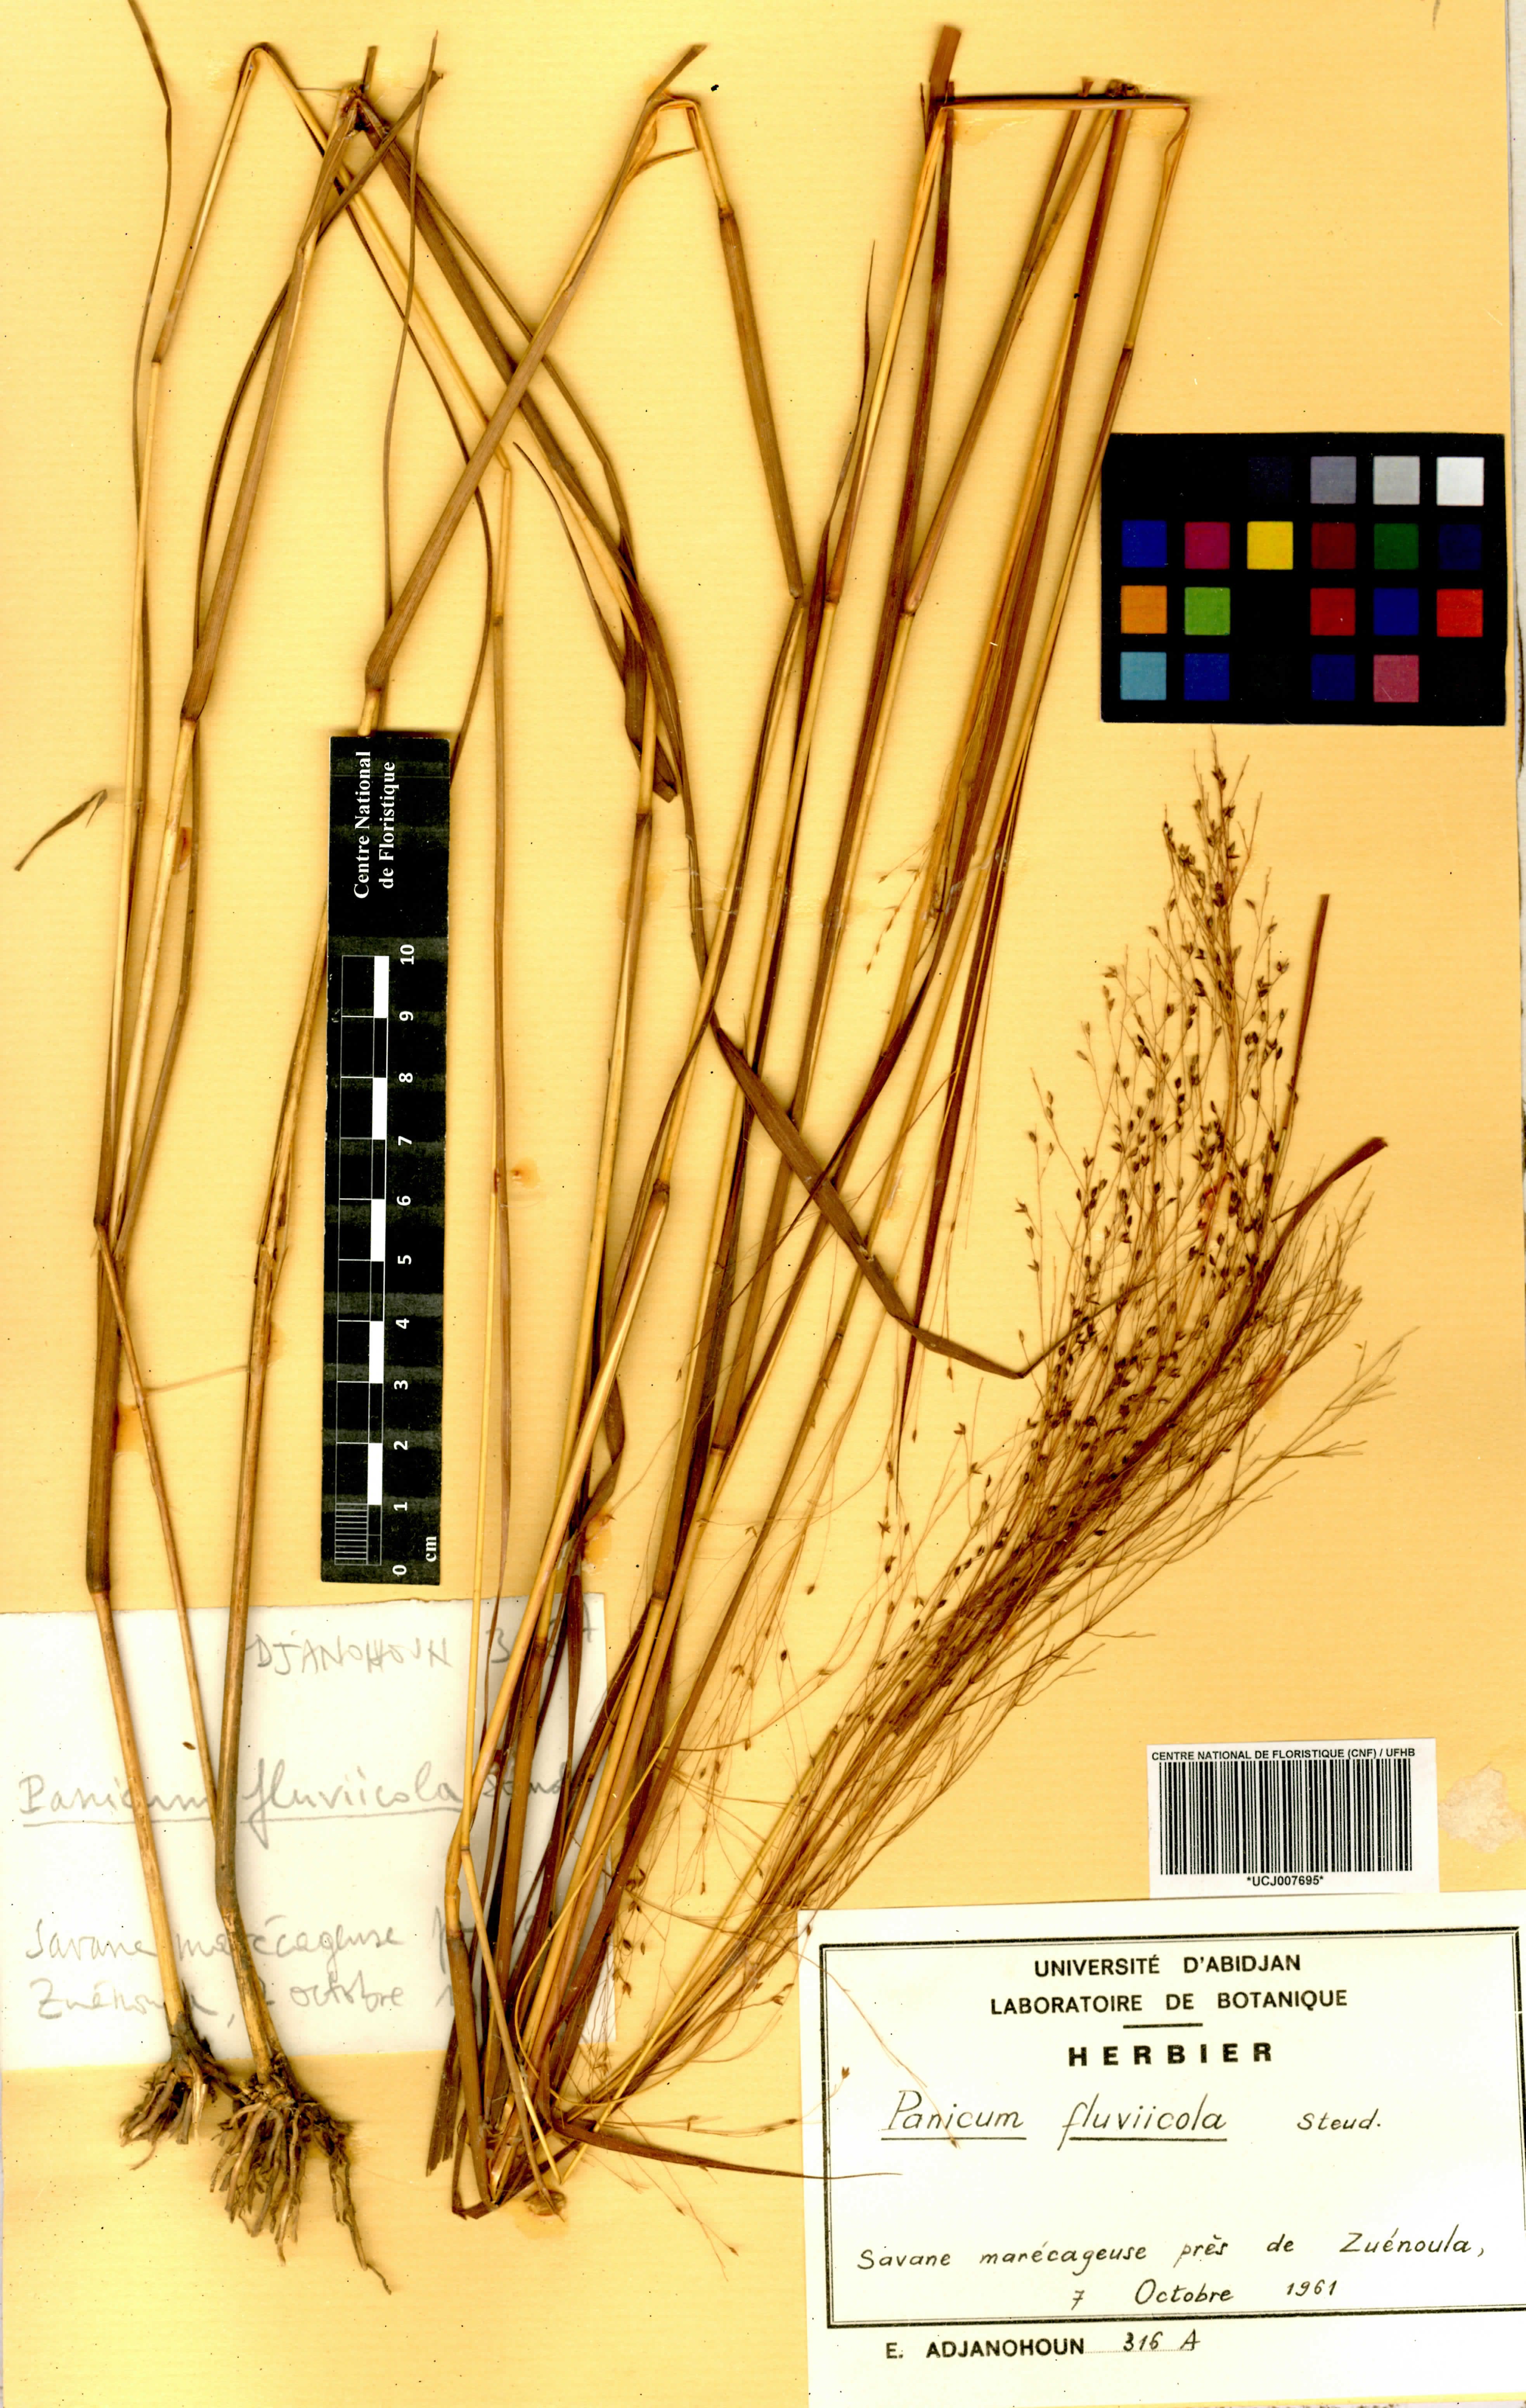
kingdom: Plantae
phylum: Tracheophyta
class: Liliopsida
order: Poales
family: Poaceae
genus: Panicum
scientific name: Panicum fluviicola
